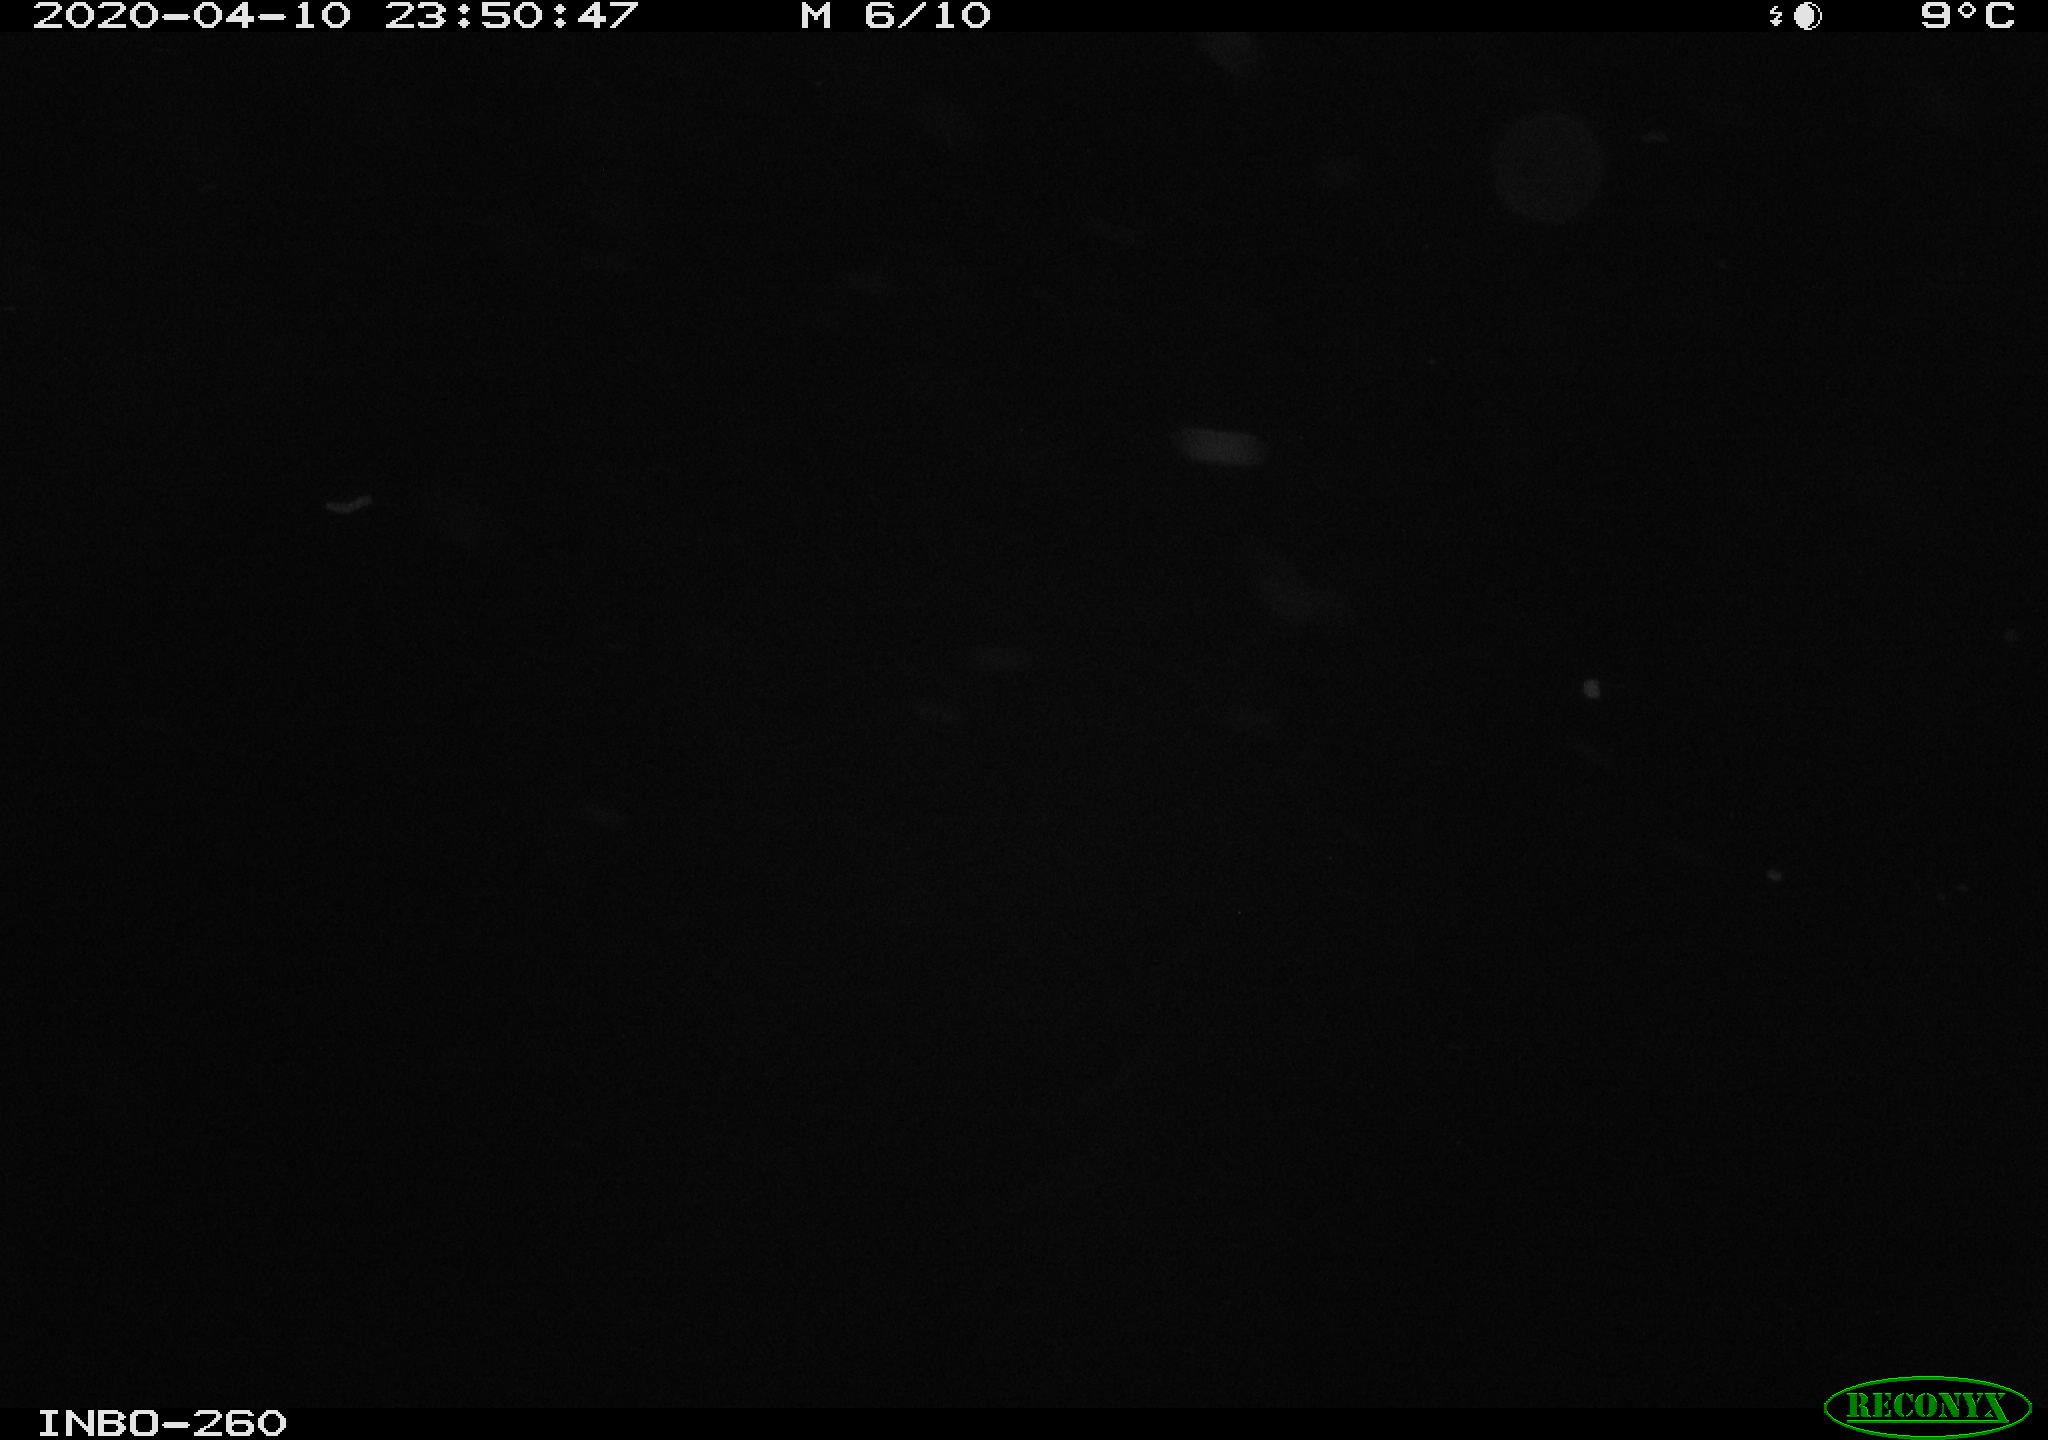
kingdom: Animalia
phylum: Chordata
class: Aves
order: Anseriformes
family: Anatidae
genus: Anas
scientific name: Anas platyrhynchos
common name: Mallard
